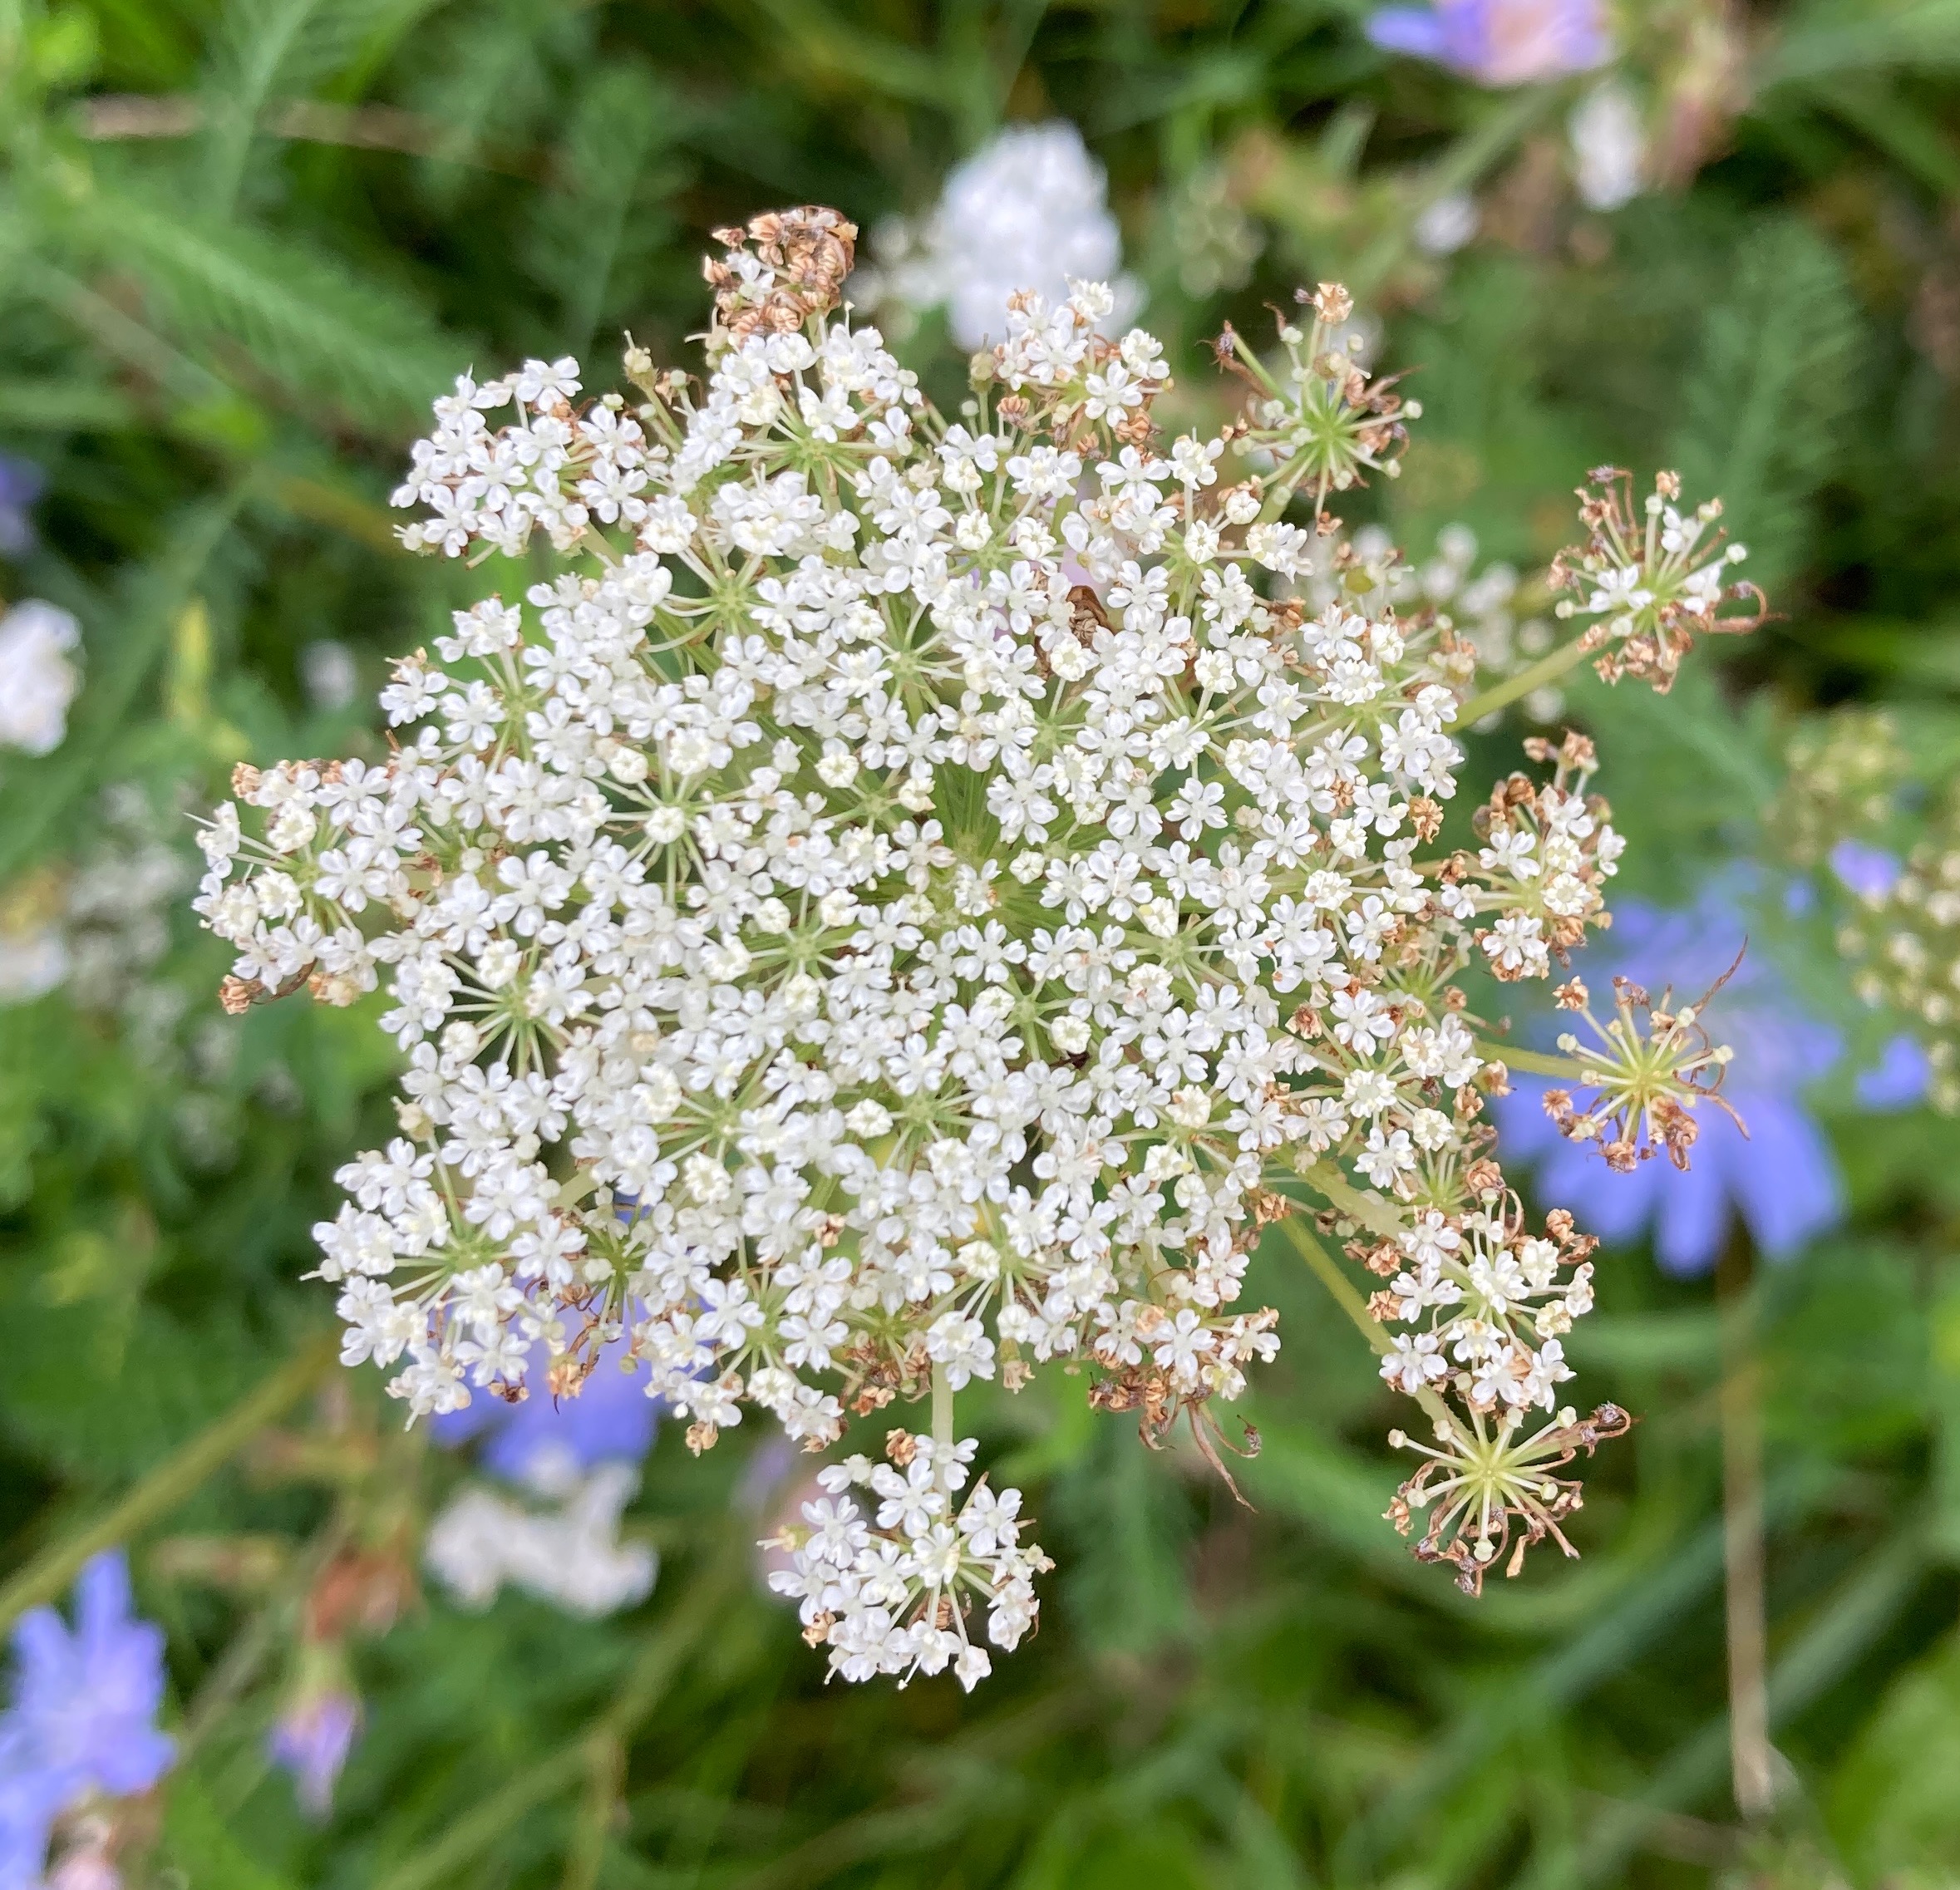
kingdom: Plantae
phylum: Tracheophyta
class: Magnoliopsida
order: Apiales
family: Apiaceae
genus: Daucus
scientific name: Daucus carota
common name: Gulerod
